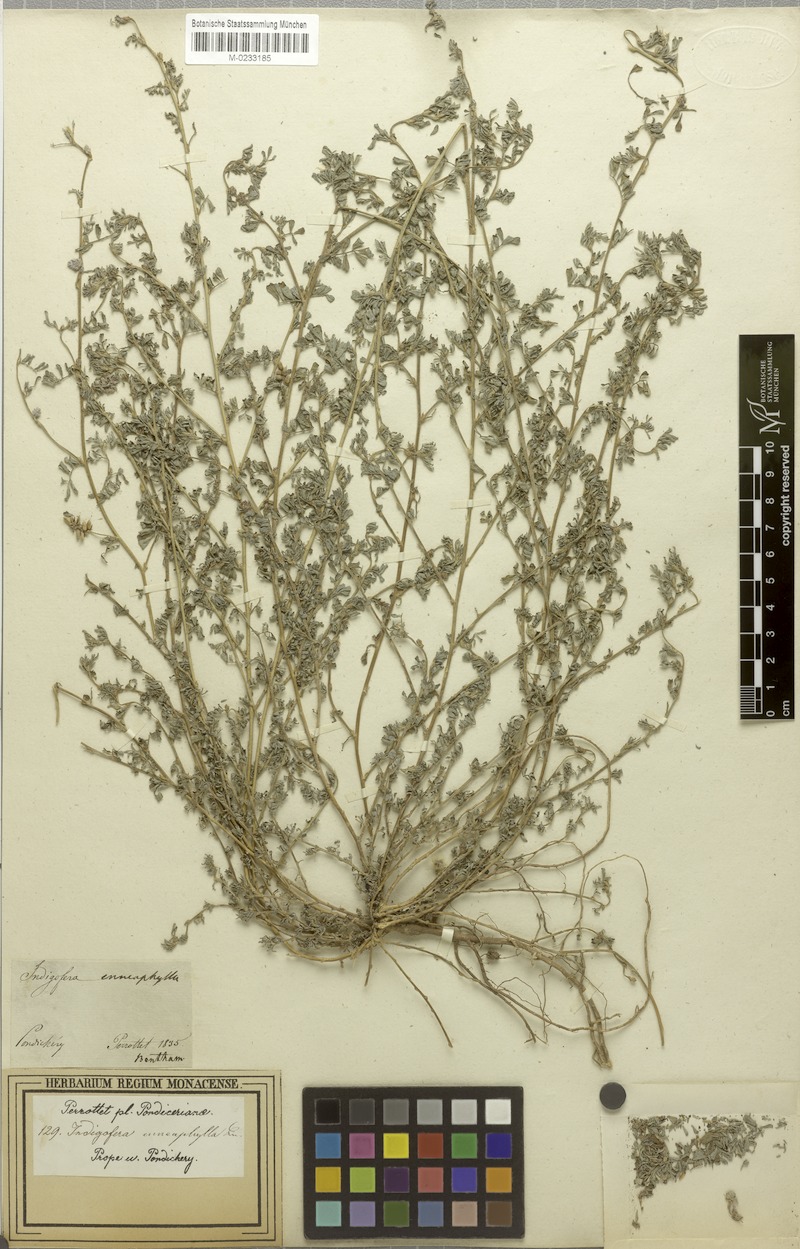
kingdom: Plantae
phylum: Tracheophyta
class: Magnoliopsida
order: Fabales
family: Fabaceae
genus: Indigofera
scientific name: Indigofera linnaei
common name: Nine-leaf indigo
